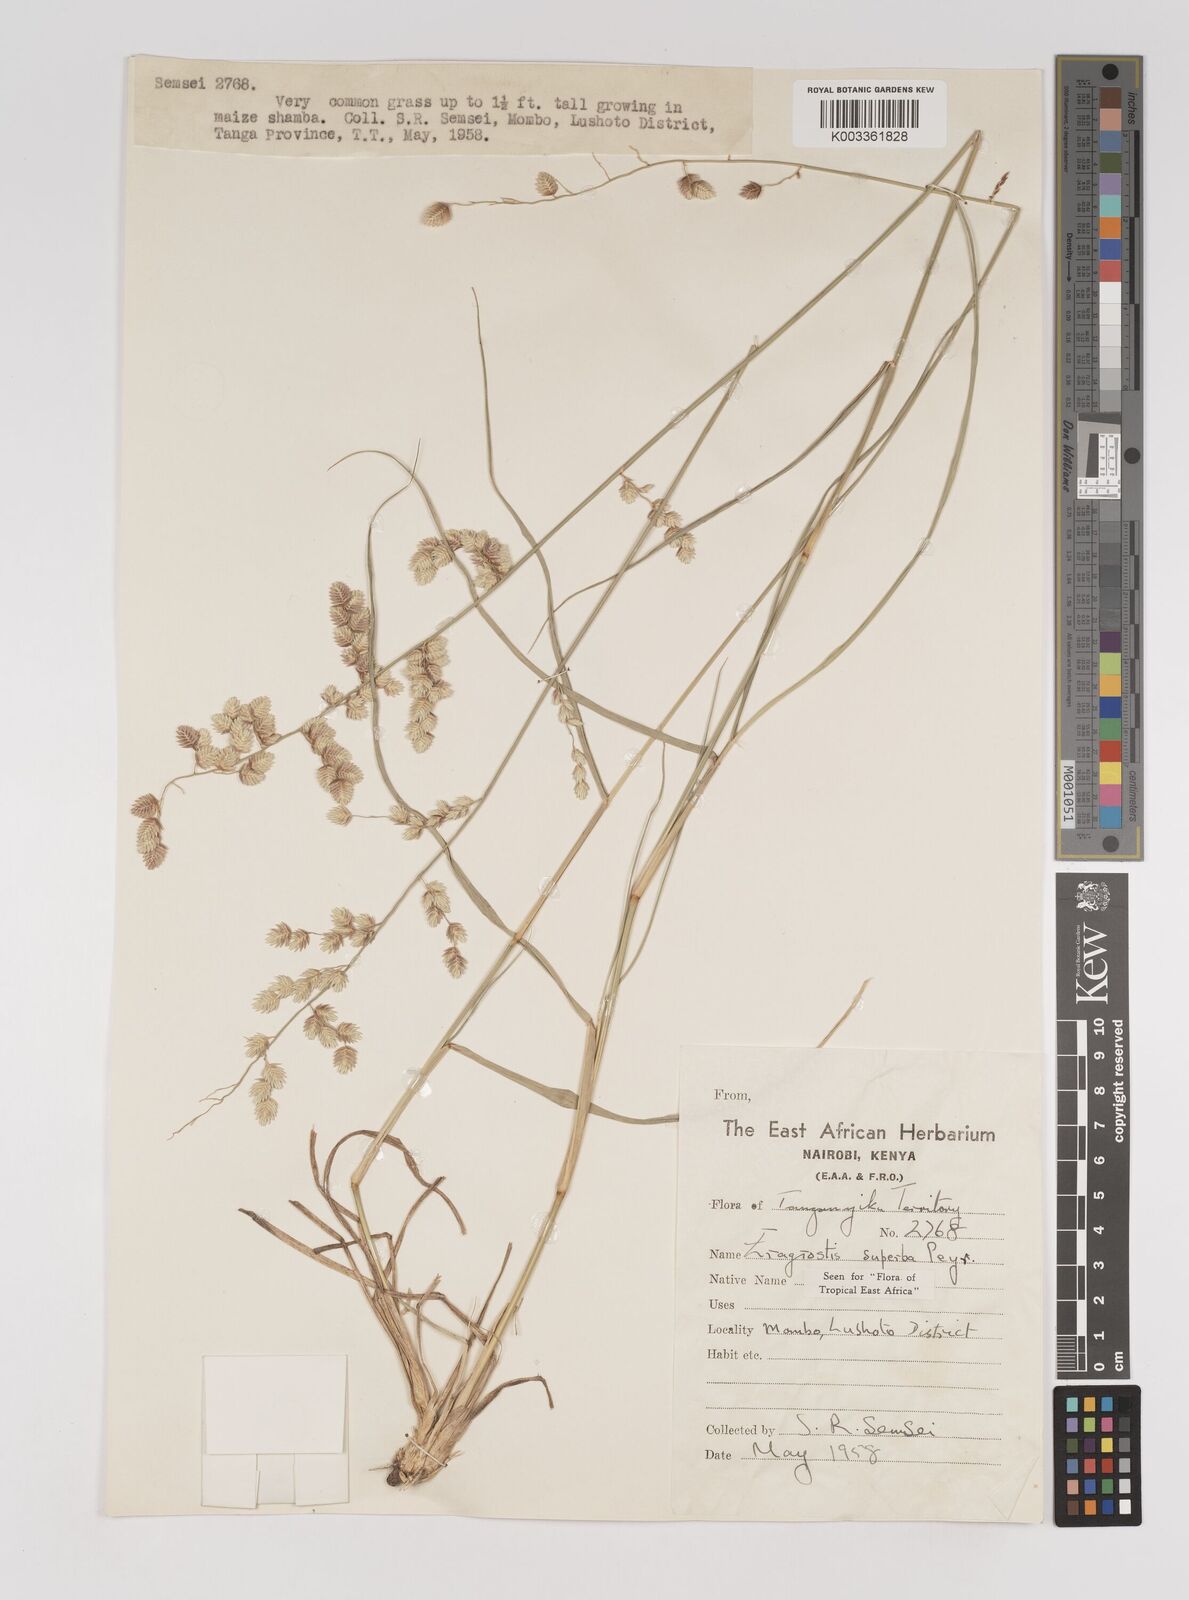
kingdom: Plantae
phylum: Tracheophyta
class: Liliopsida
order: Poales
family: Poaceae
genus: Eragrostis
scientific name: Eragrostis superba
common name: Wilman lovegrass
